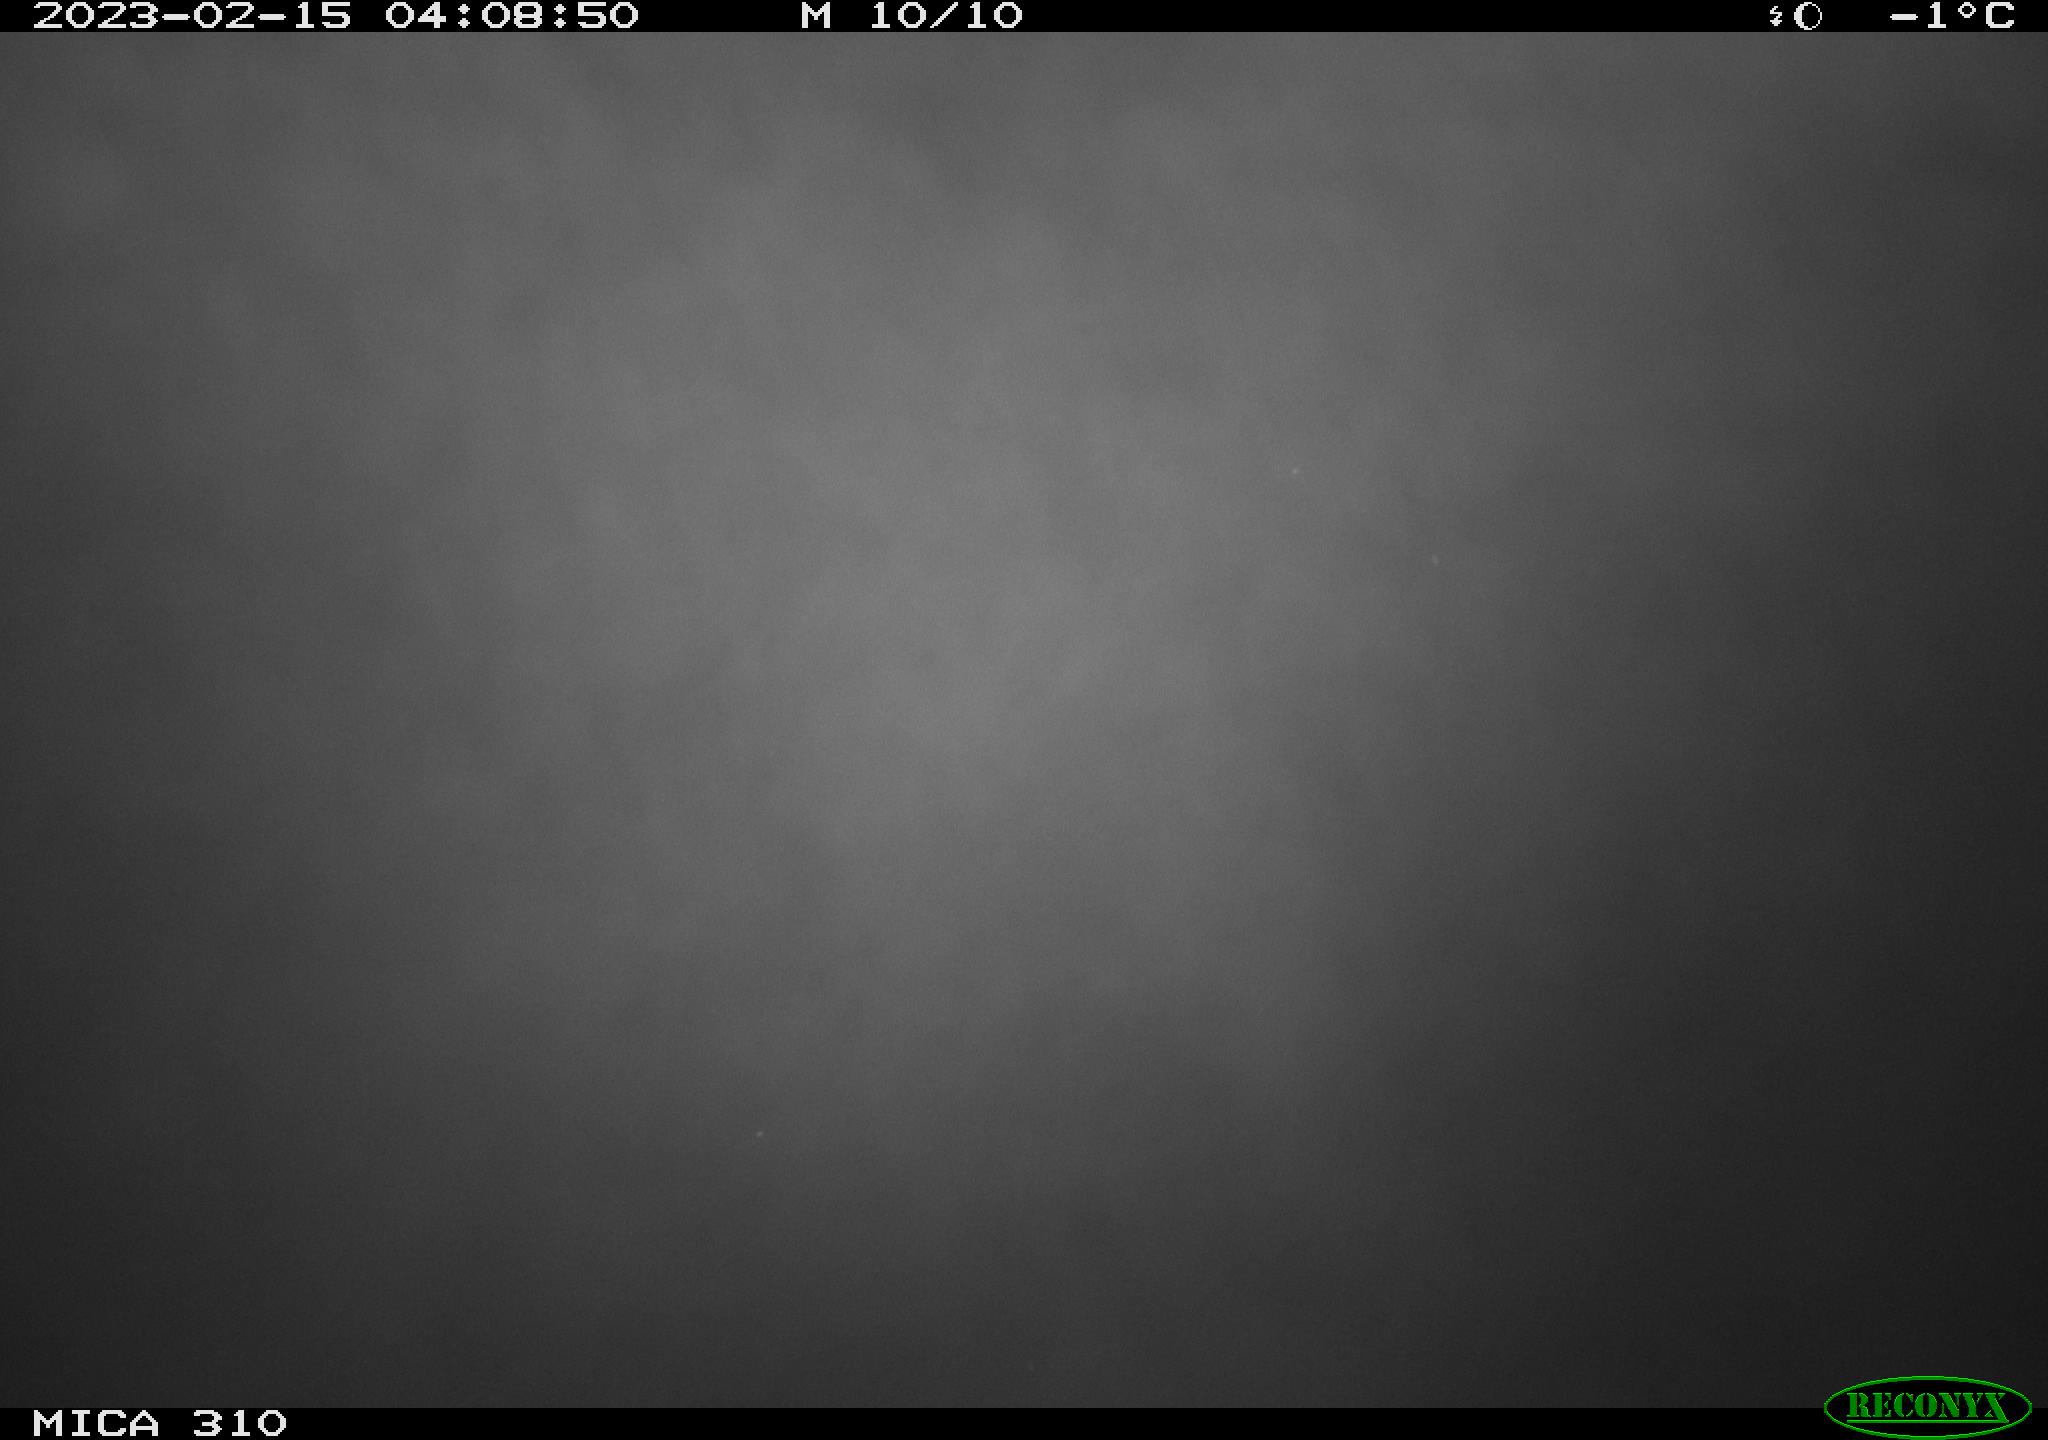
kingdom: Animalia
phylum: Chordata
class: Aves
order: Anseriformes
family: Anatidae
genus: Anas
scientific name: Anas
